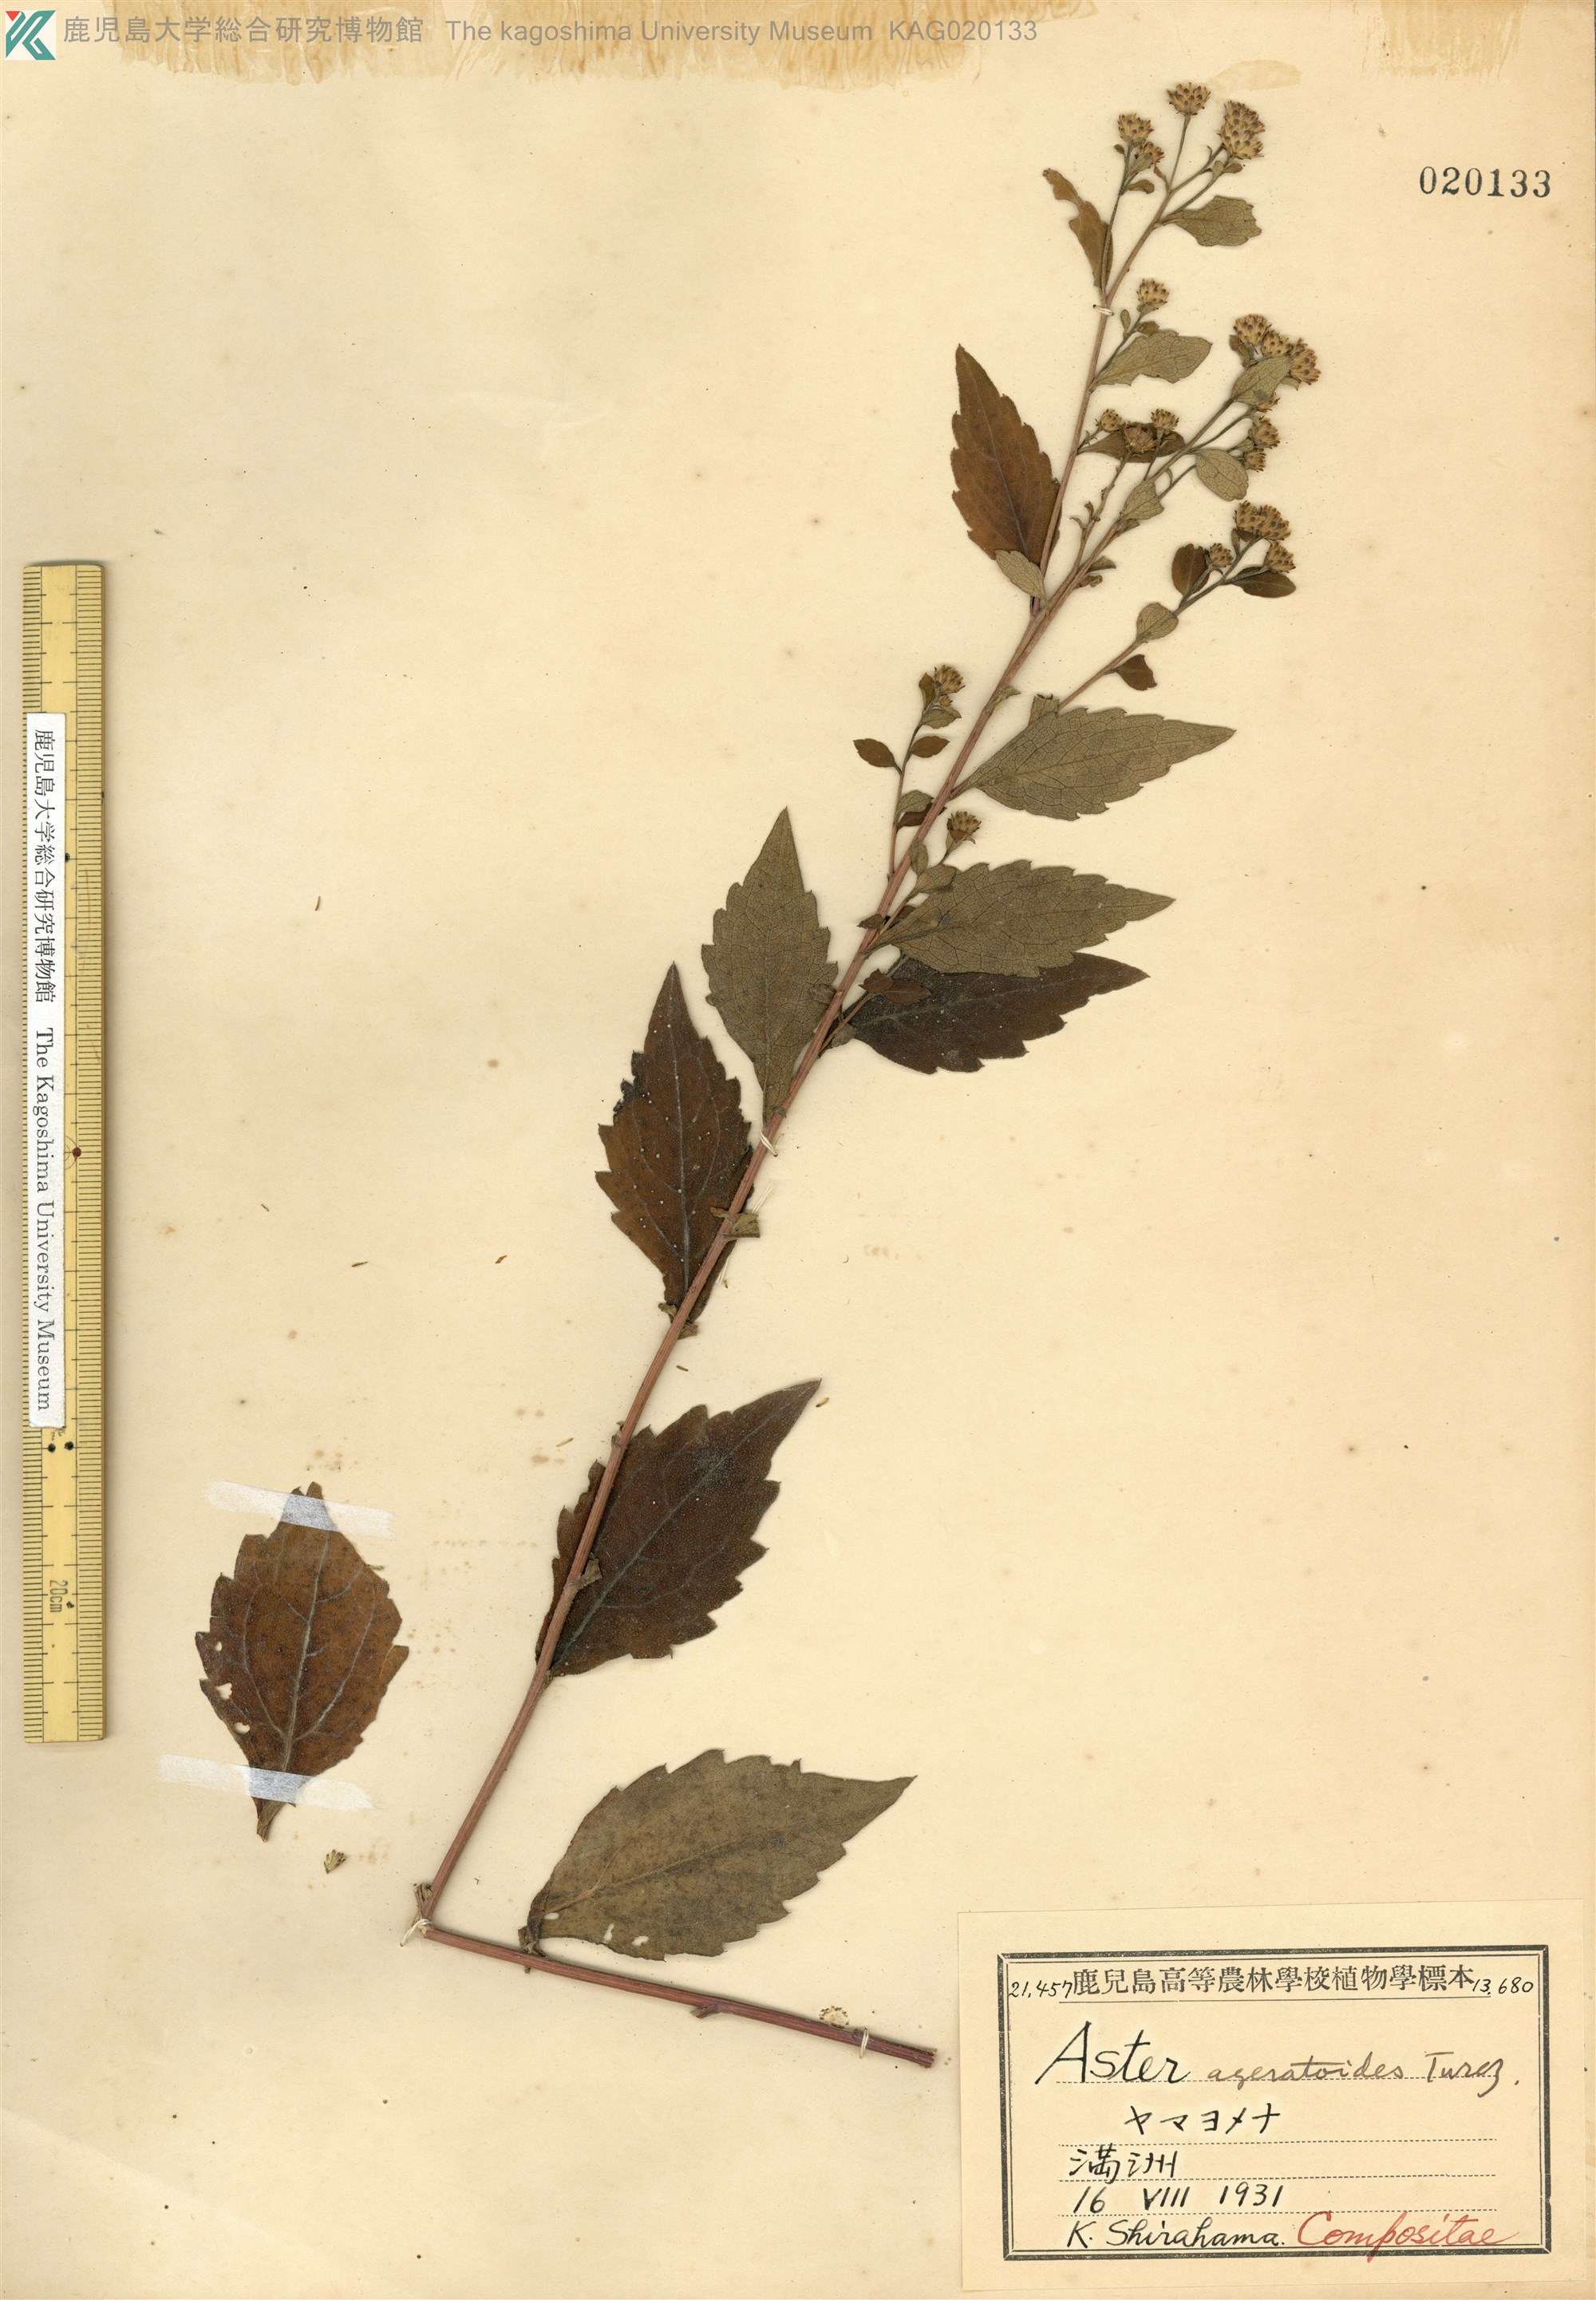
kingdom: Plantae
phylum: Tracheophyta
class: Magnoliopsida
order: Asterales
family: Asteraceae
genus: Aster
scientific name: Aster ageratoides
